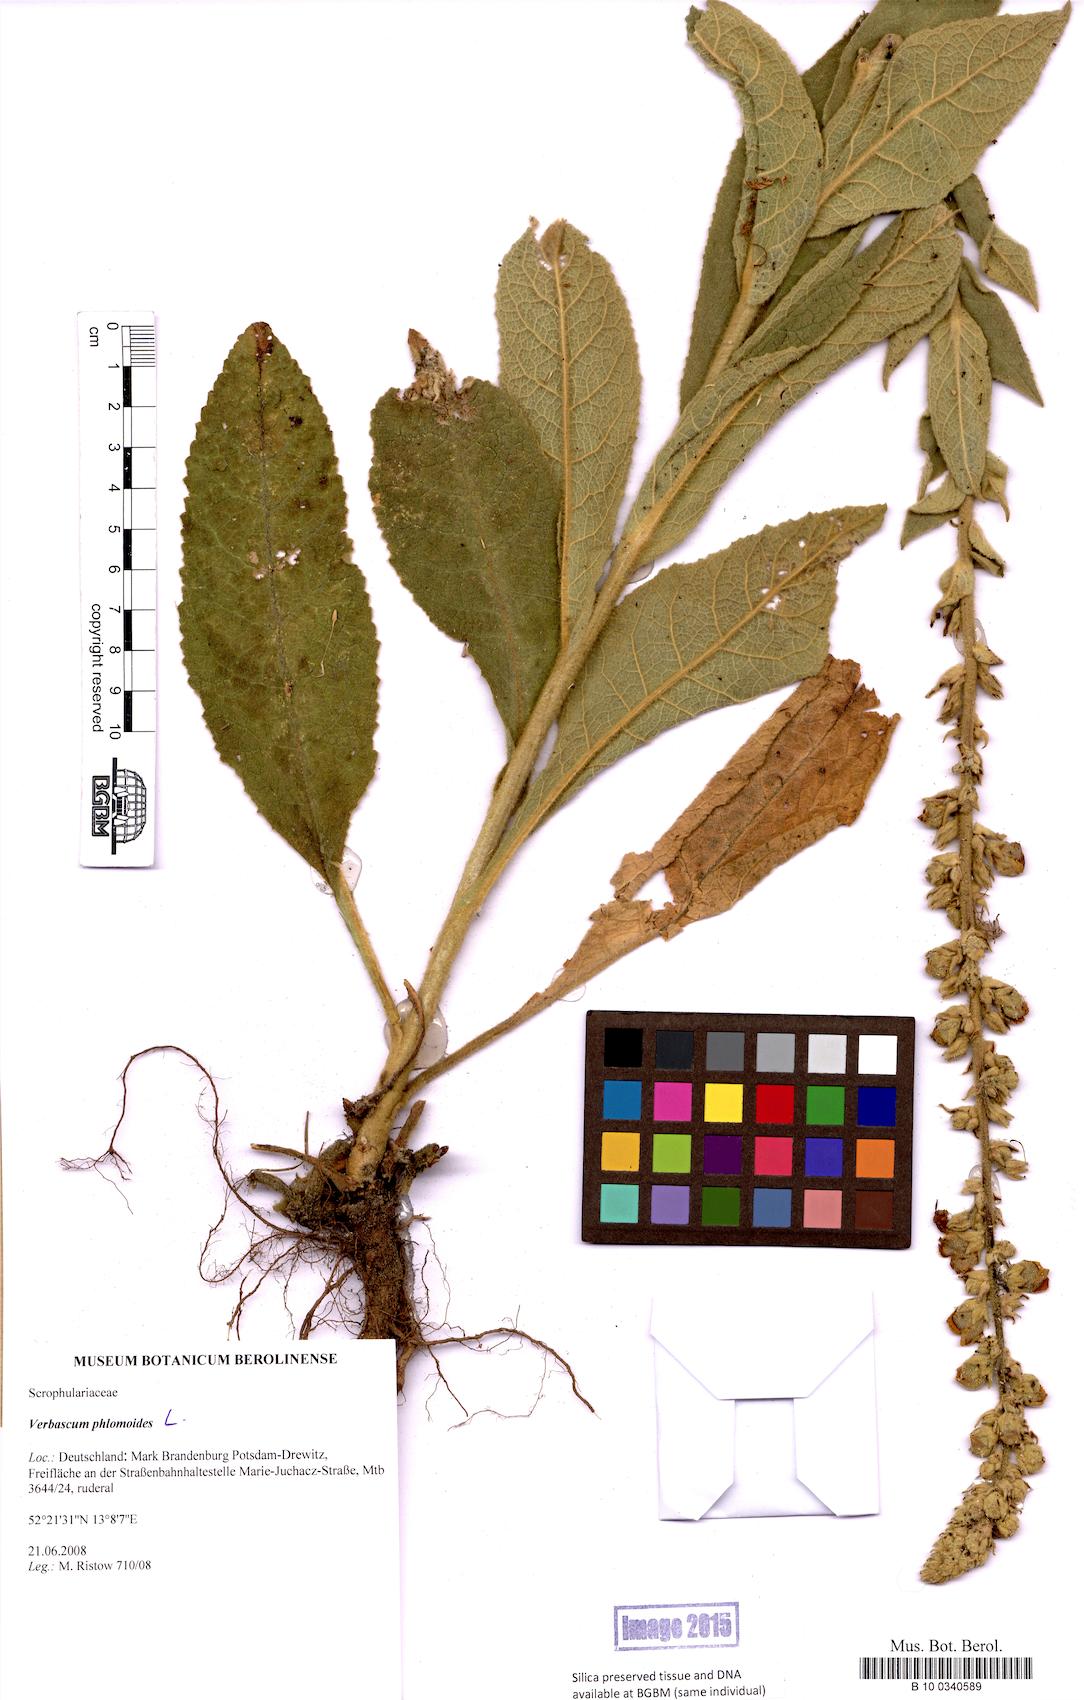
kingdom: Plantae
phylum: Tracheophyta
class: Magnoliopsida
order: Lamiales
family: Scrophulariaceae
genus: Verbascum
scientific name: Verbascum phlomoides
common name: Orange mullein
